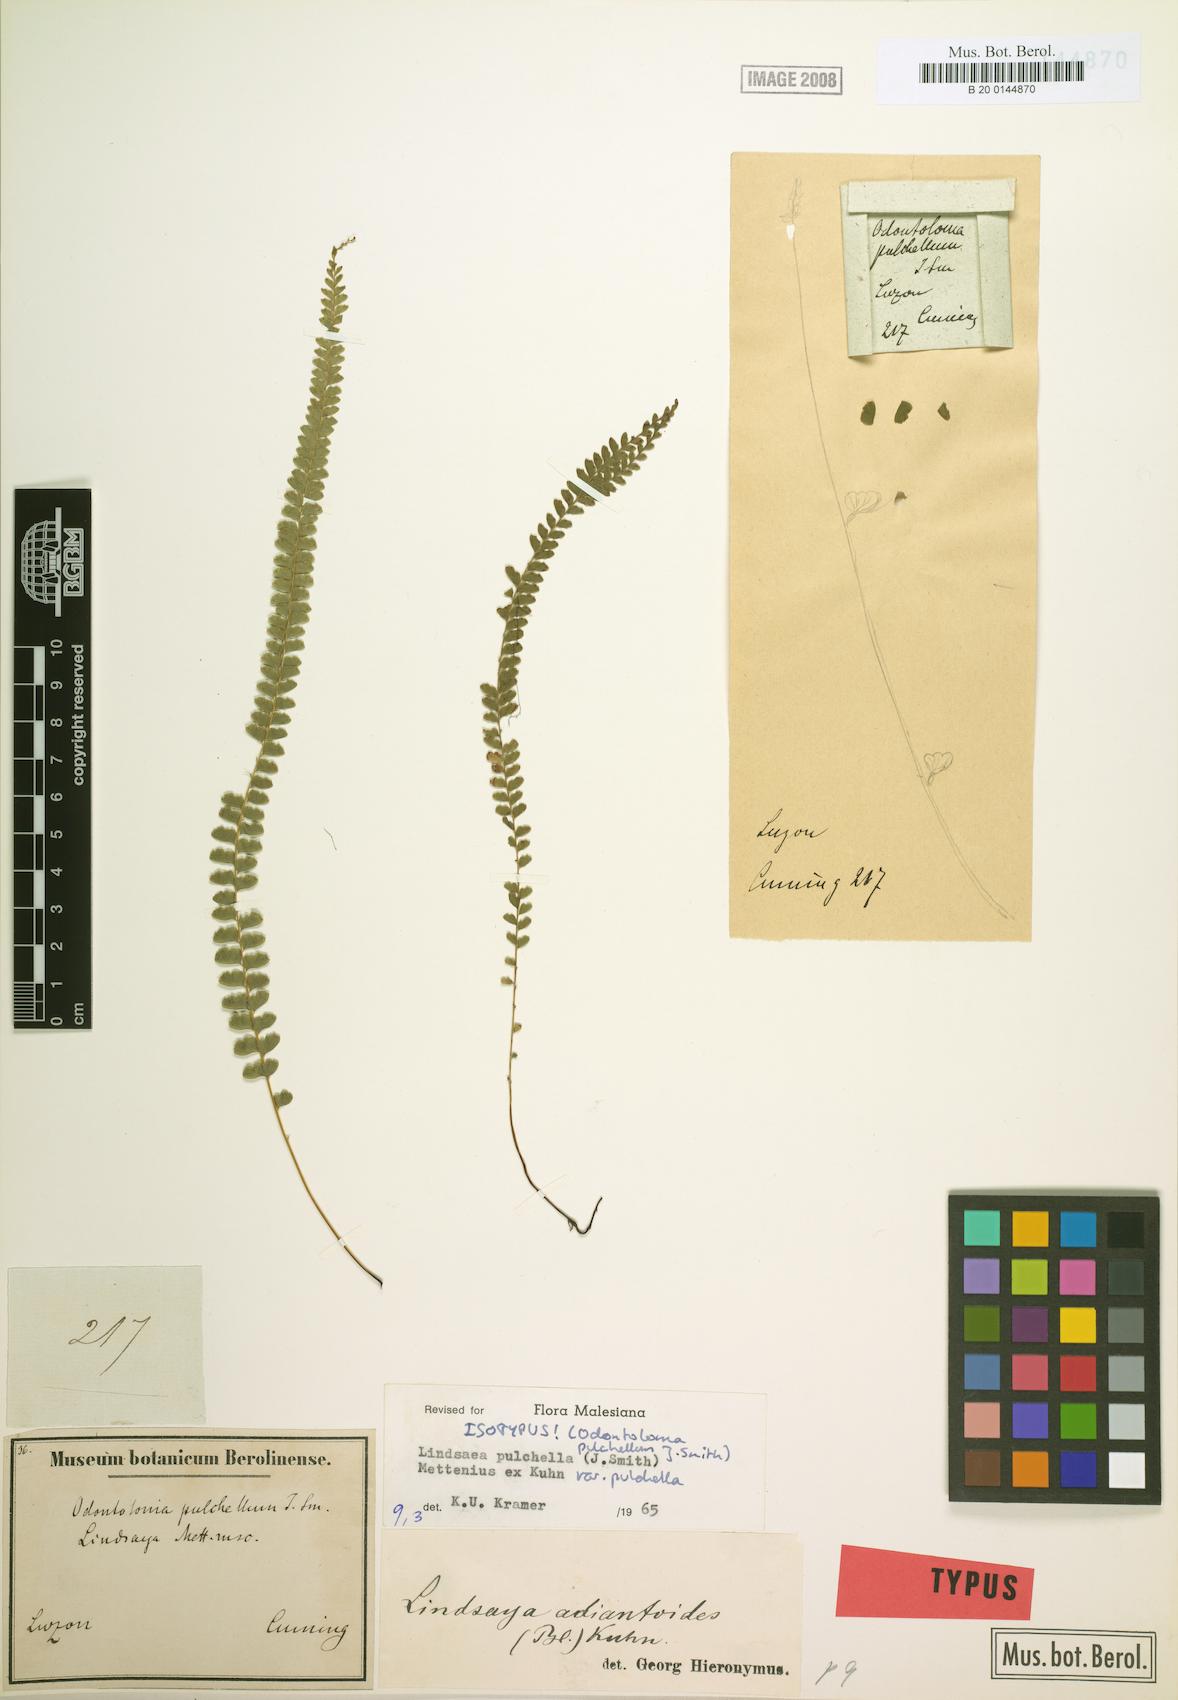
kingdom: Plantae
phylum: Tracheophyta
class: Polypodiopsida
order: Polypodiales
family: Lindsaeaceae
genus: Lindsaea
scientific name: Lindsaea pulchella
